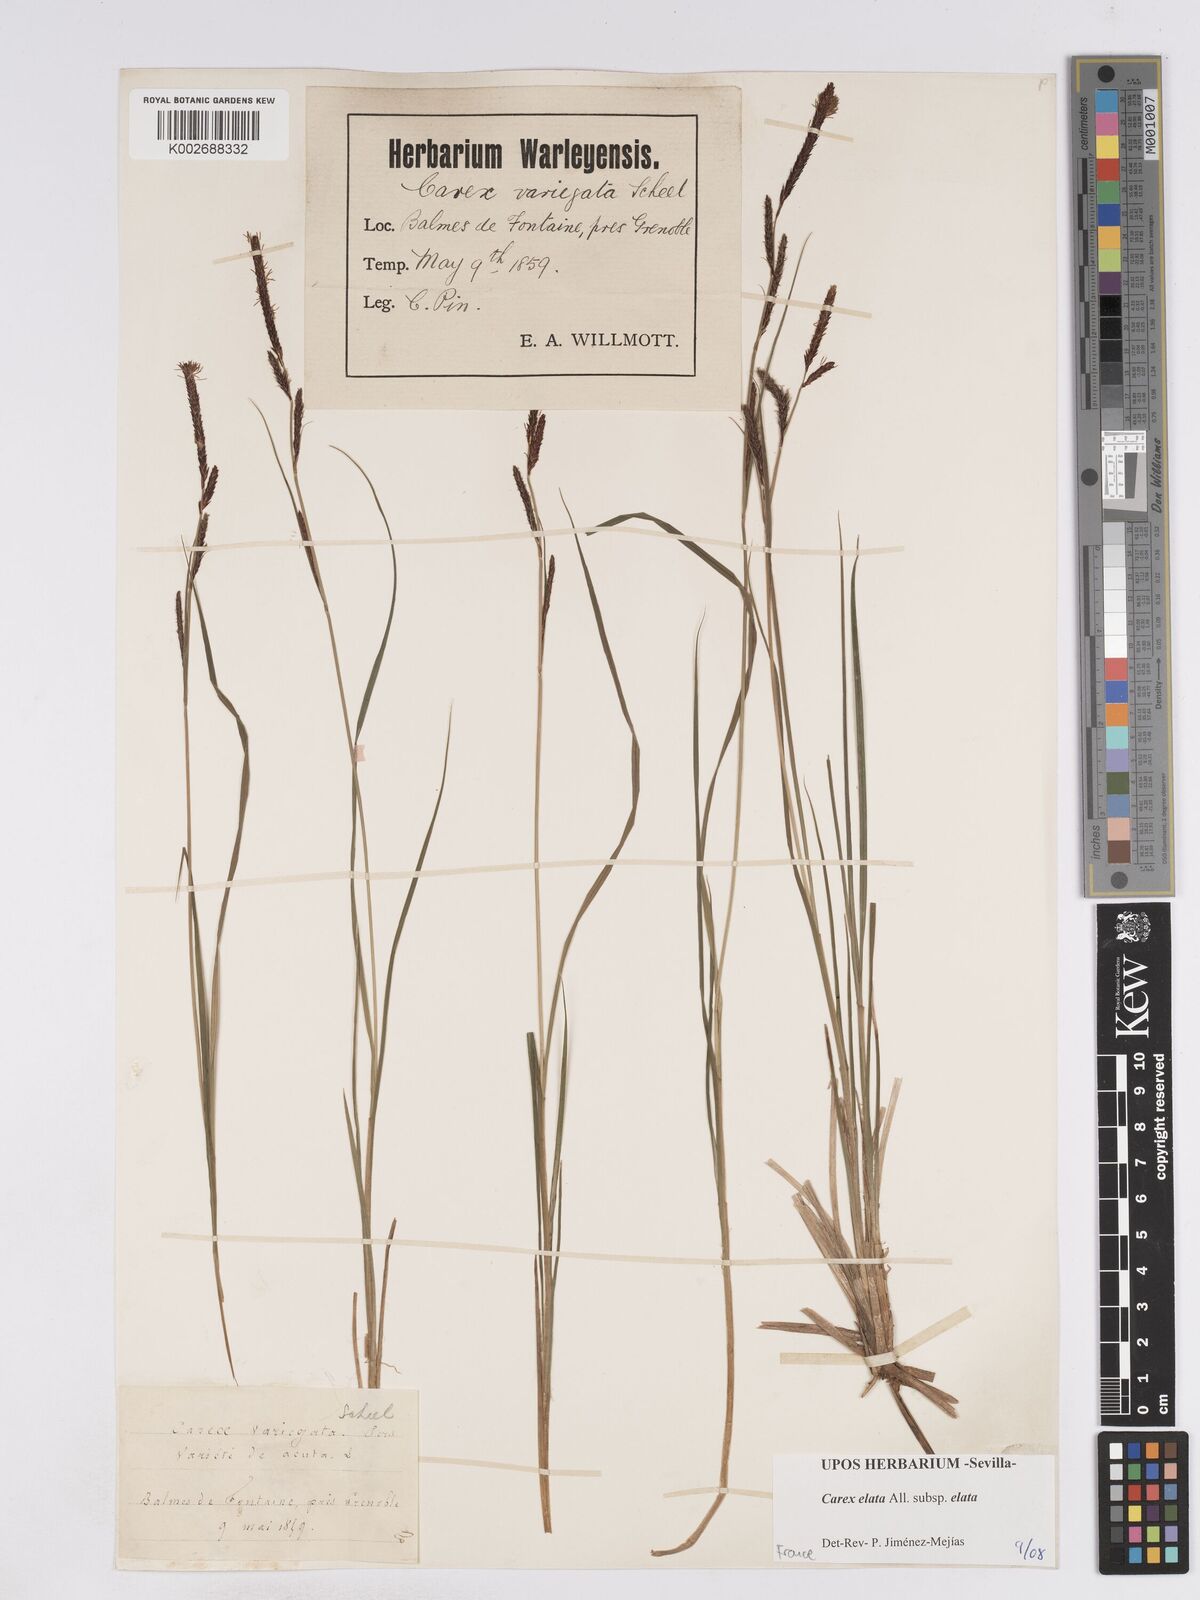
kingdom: Plantae
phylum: Tracheophyta
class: Liliopsida
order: Poales
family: Cyperaceae
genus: Carex
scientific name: Carex elata
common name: Tufted sedge
